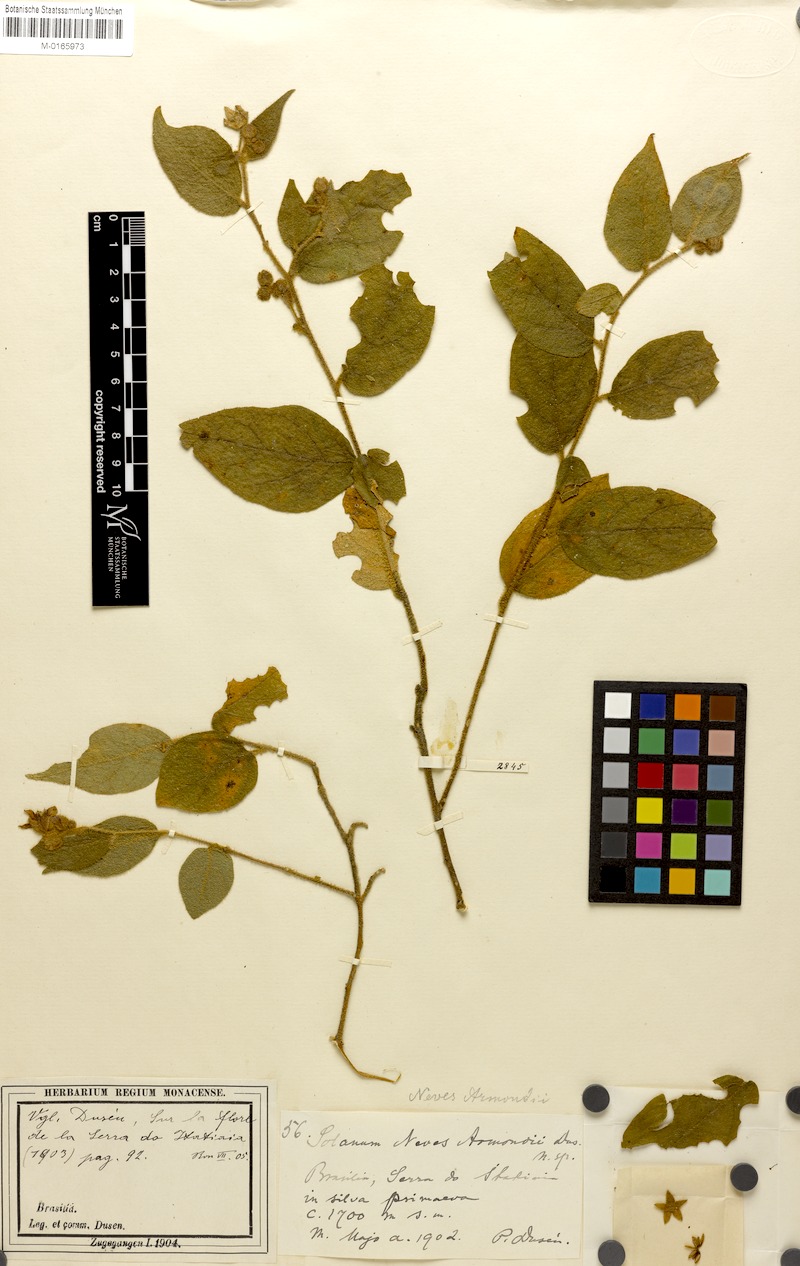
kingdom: Plantae
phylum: Tracheophyta
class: Magnoliopsida
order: Solanales
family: Solanaceae
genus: Solanum
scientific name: Solanum megalochiton
